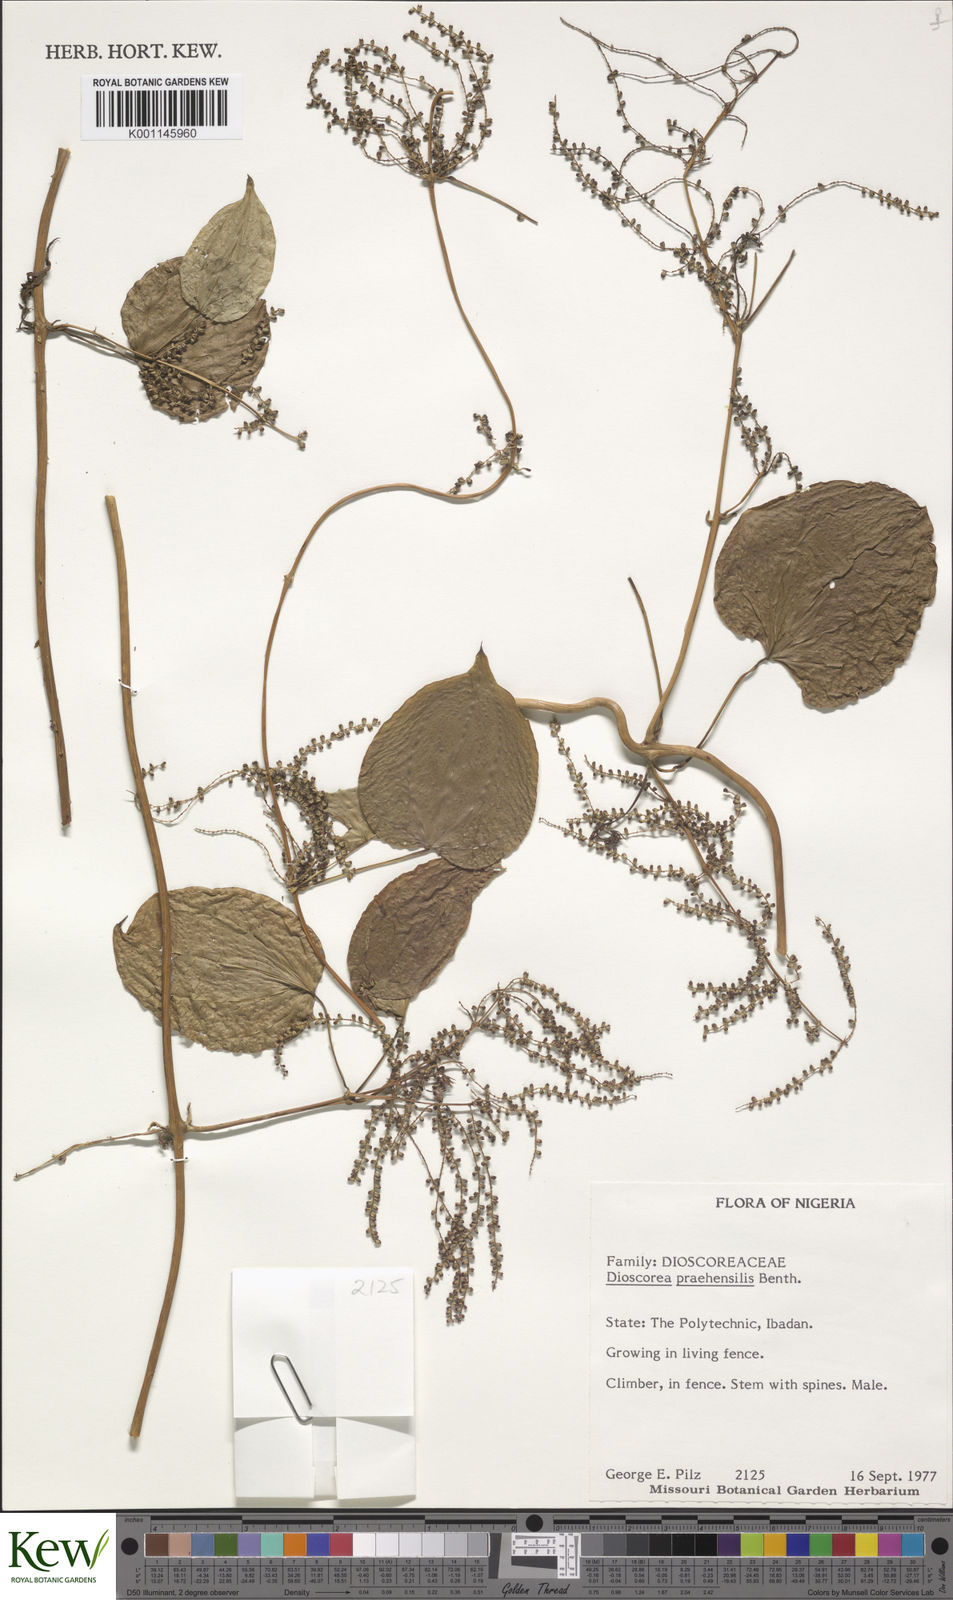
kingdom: Plantae
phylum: Tracheophyta
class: Liliopsida
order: Dioscoreales
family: Dioscoreaceae
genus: Dioscorea
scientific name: Dioscorea praehensilis
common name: Bush yam
